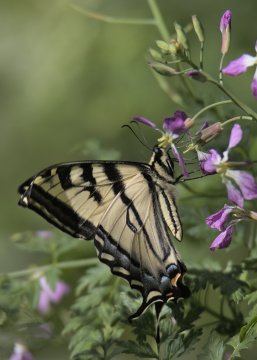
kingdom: Animalia
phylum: Arthropoda
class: Insecta
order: Lepidoptera
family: Papilionidae
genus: Pterourus
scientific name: Pterourus rutulus
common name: Western Tiger Swallowtail
